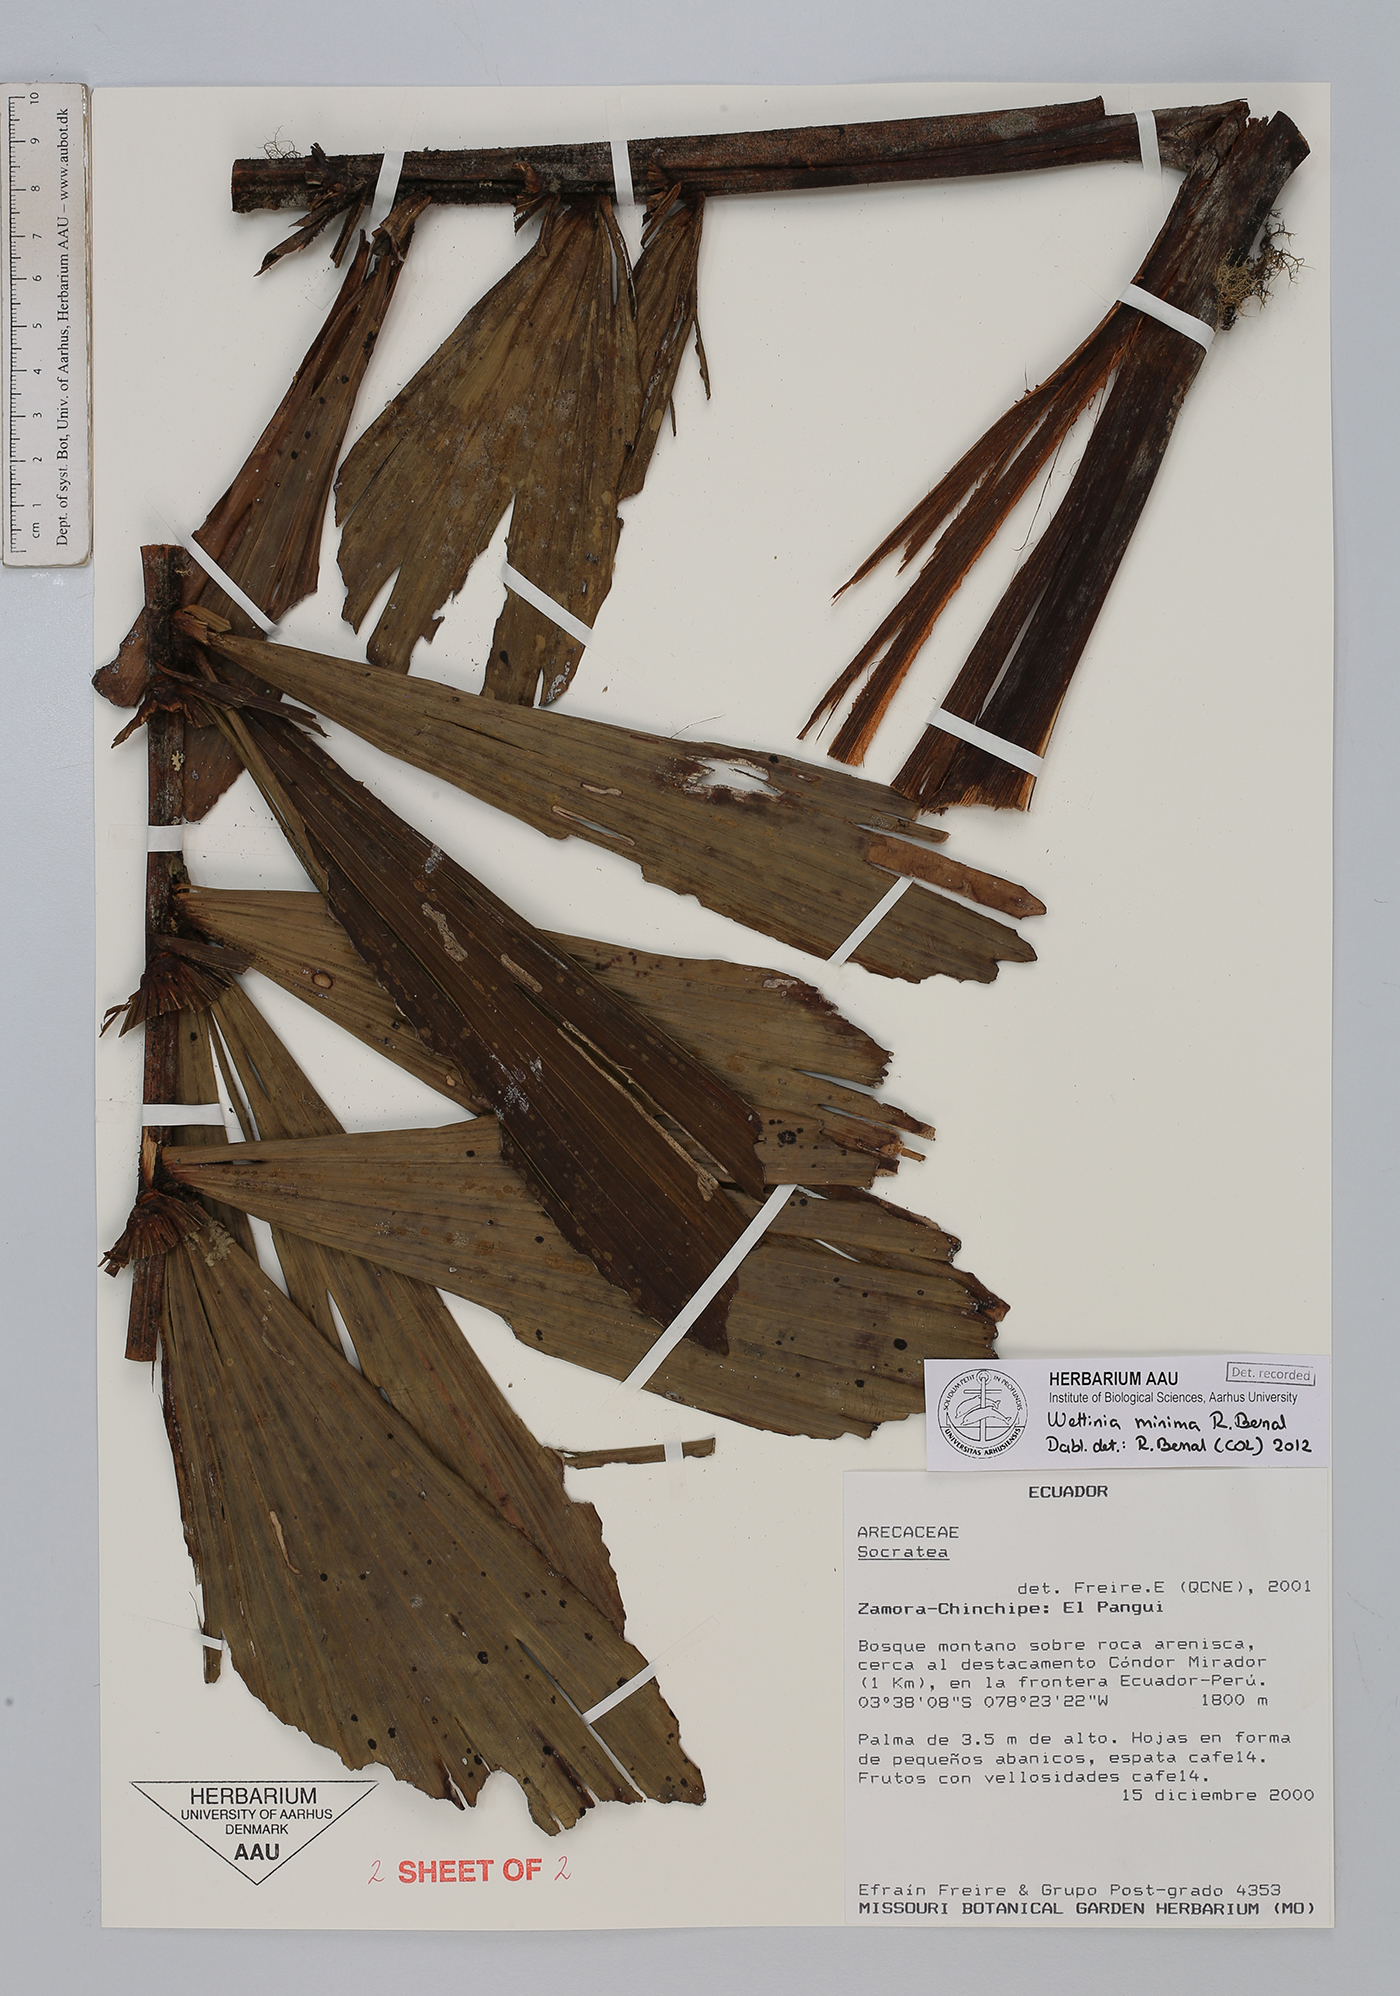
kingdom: Plantae
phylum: Tracheophyta
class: Liliopsida
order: Arecales
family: Arecaceae
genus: Wettinia
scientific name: Wettinia minima
